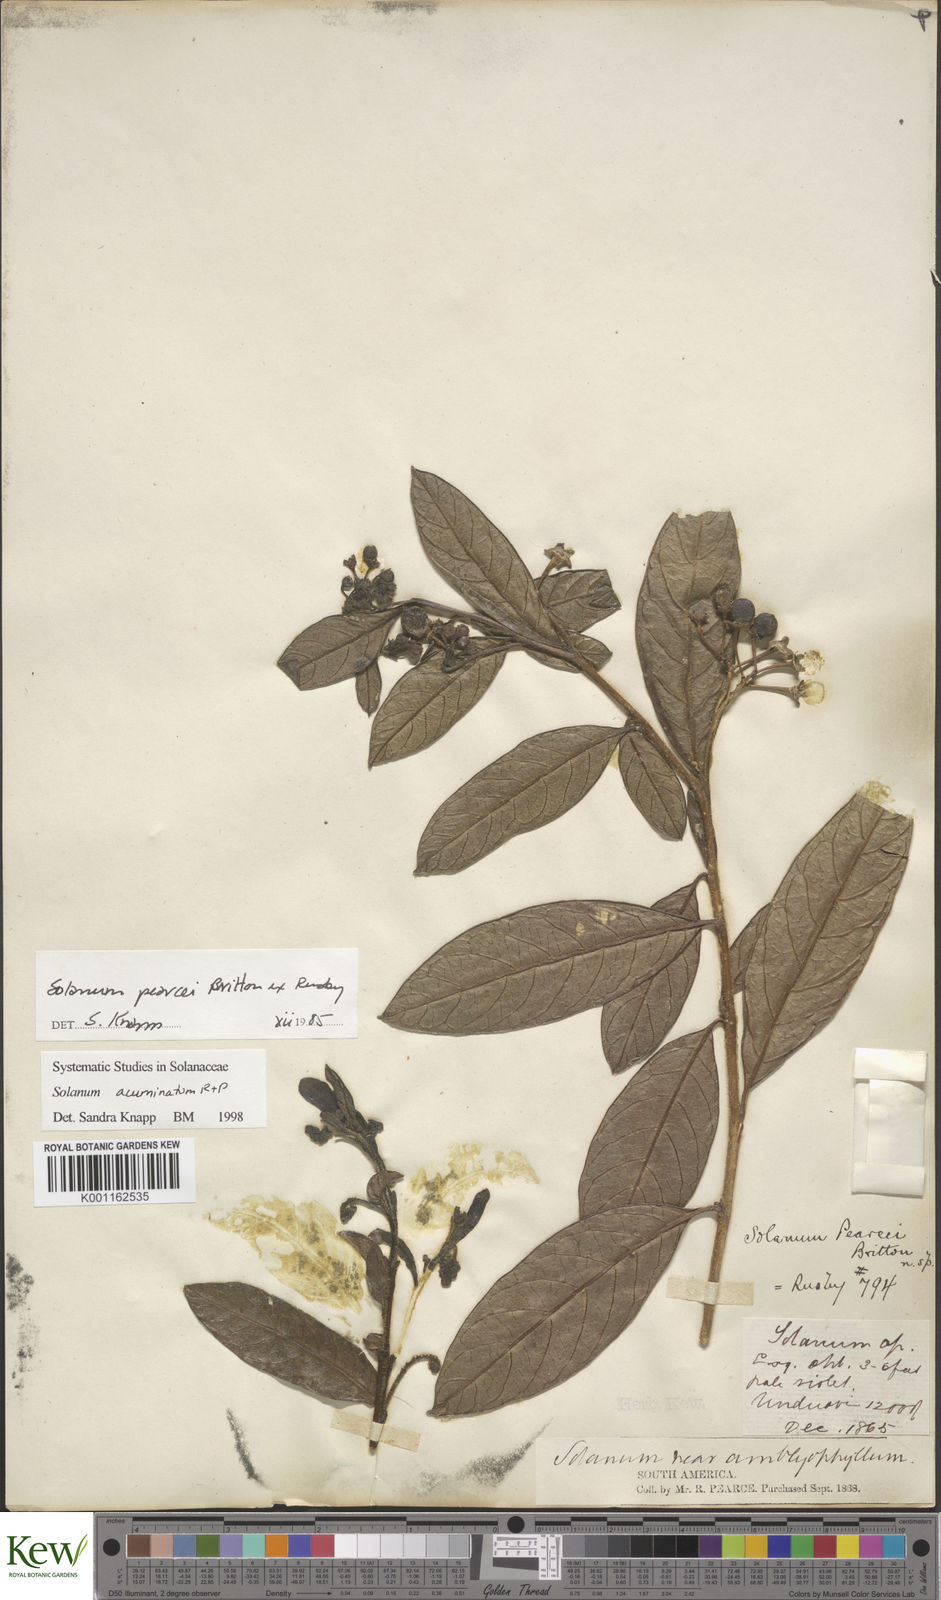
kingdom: Plantae
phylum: Tracheophyta
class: Magnoliopsida
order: Solanales
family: Solanaceae
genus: Solanum
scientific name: Solanum acuminatum
